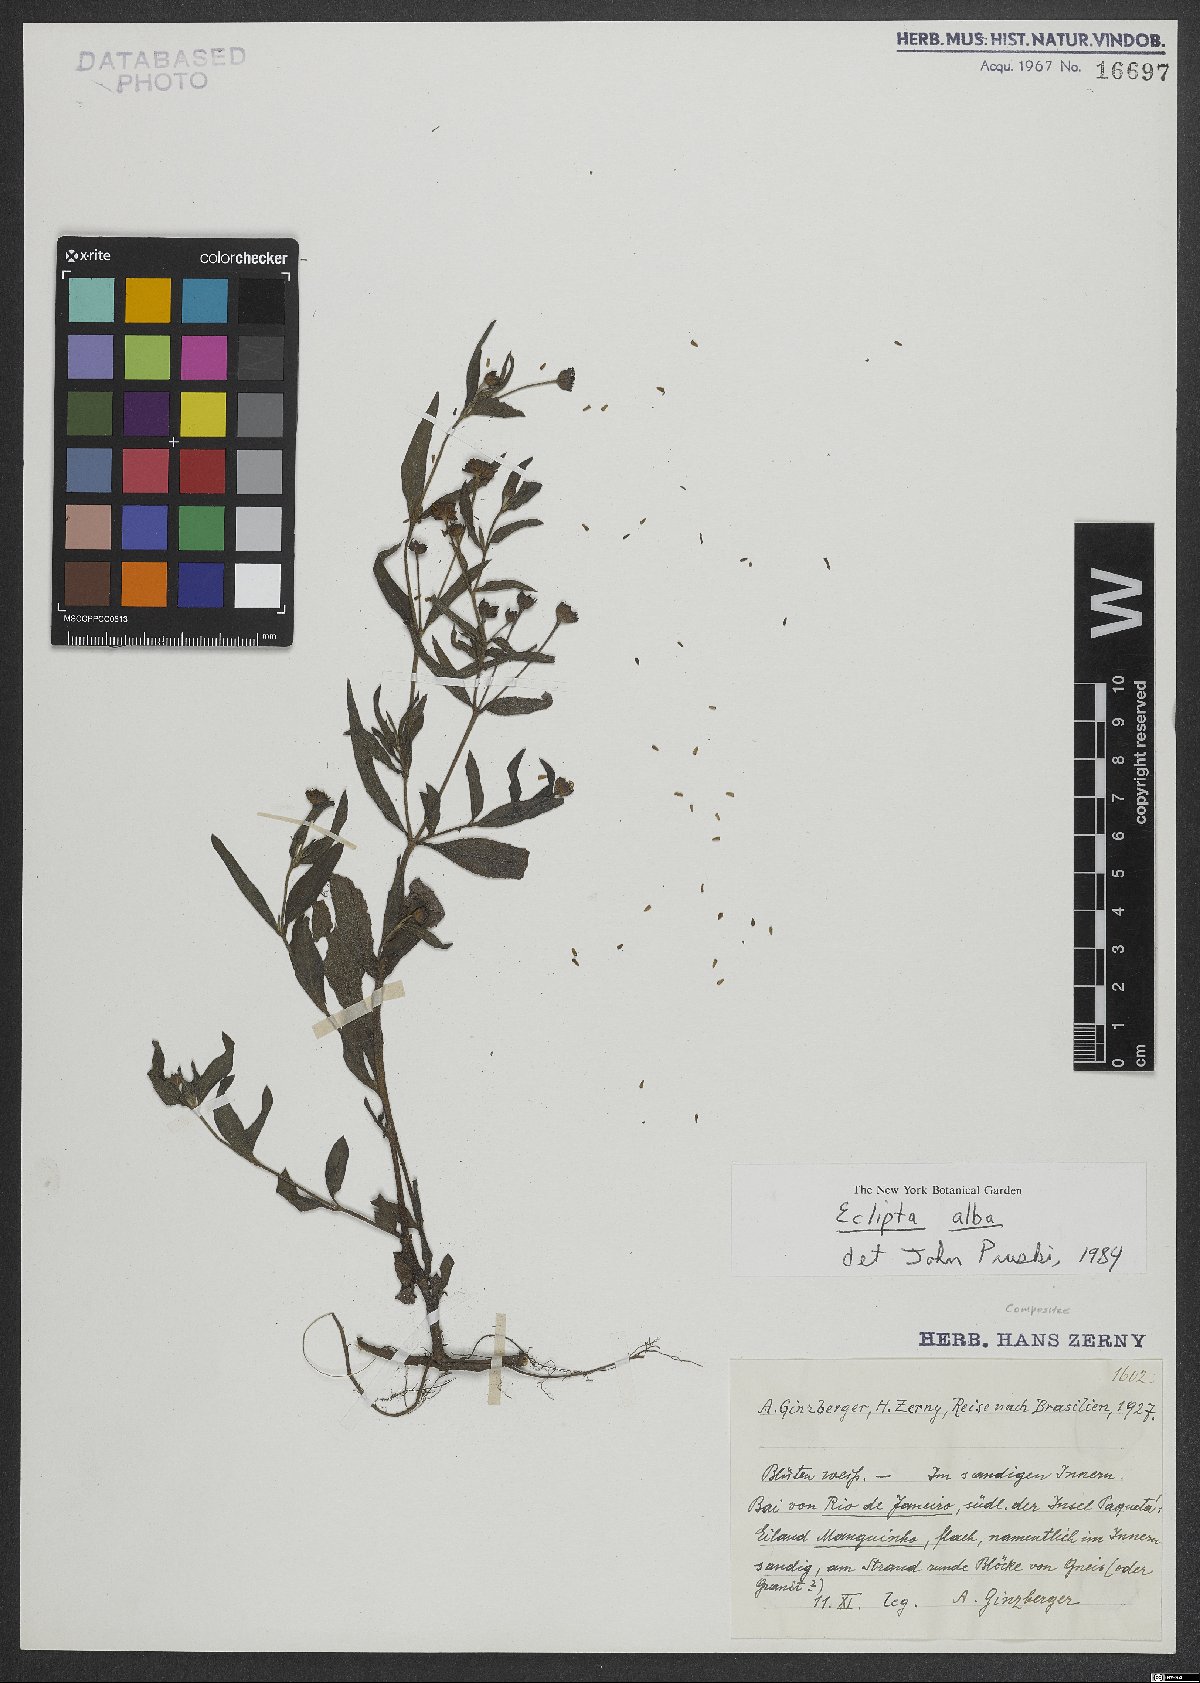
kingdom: Plantae
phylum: Tracheophyta
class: Magnoliopsida
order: Asterales
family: Asteraceae
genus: Eclipta
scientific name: Eclipta alba
